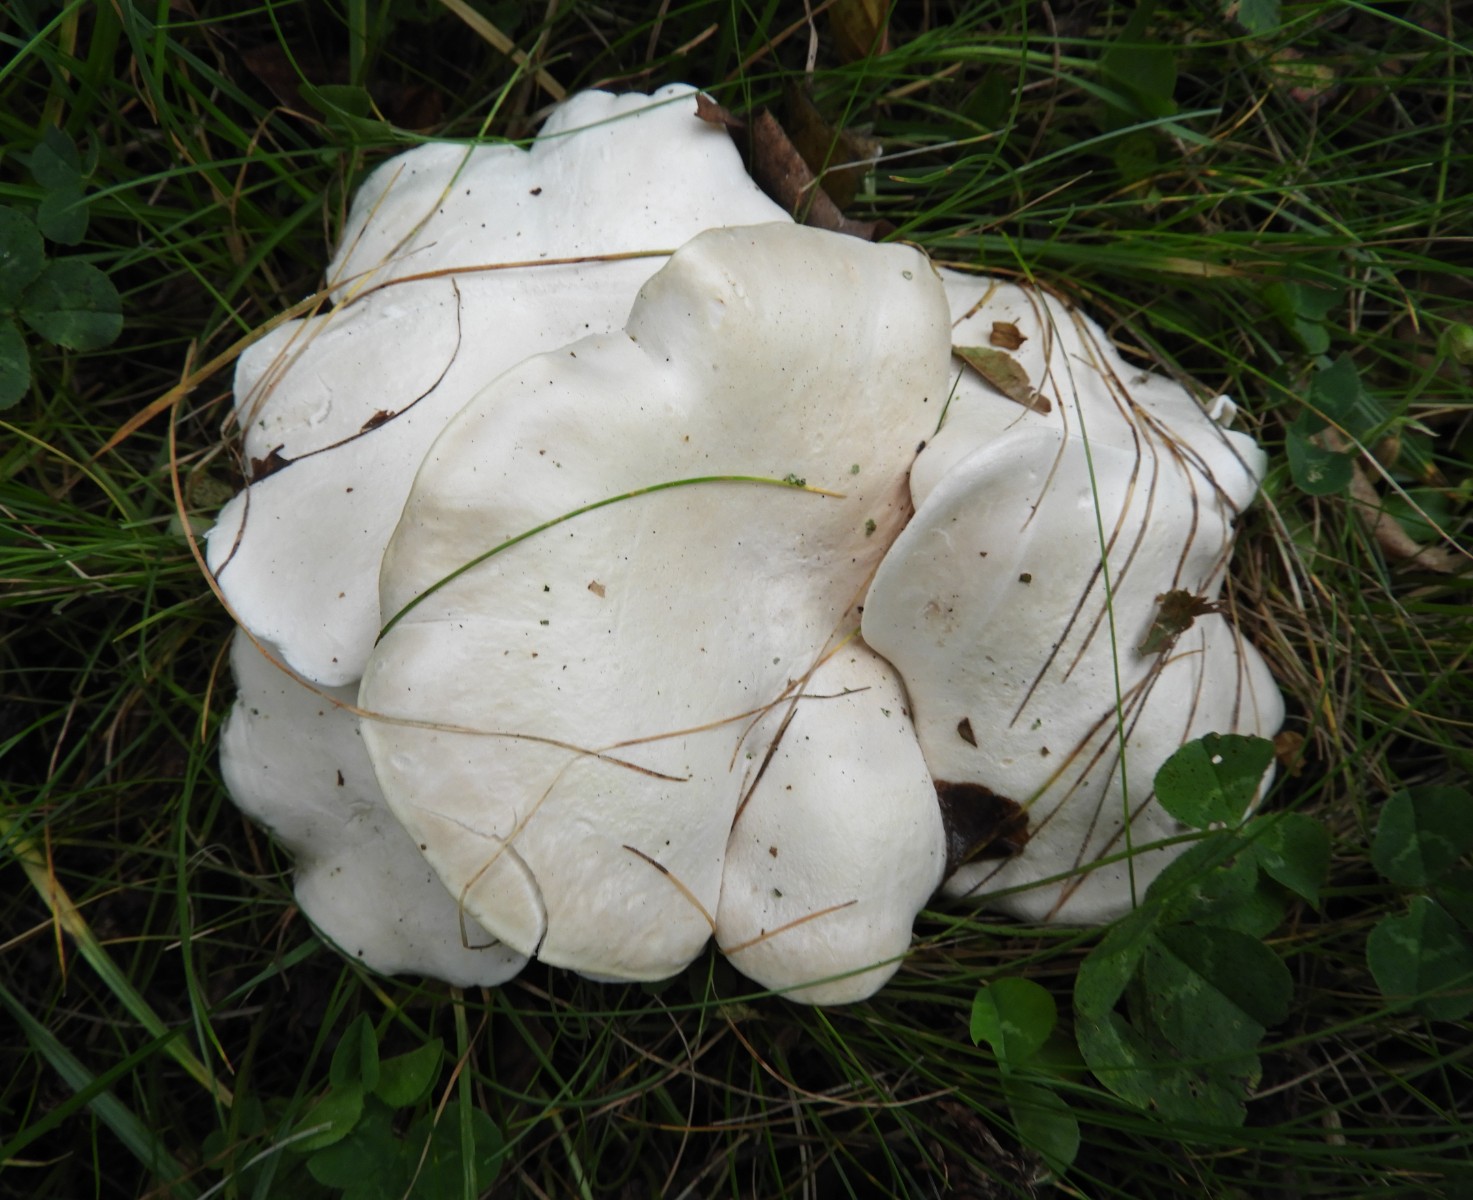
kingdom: Fungi
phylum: Basidiomycota
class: Agaricomycetes
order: Agaricales
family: Entolomataceae
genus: Clitopilus
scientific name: Clitopilus prunulus
